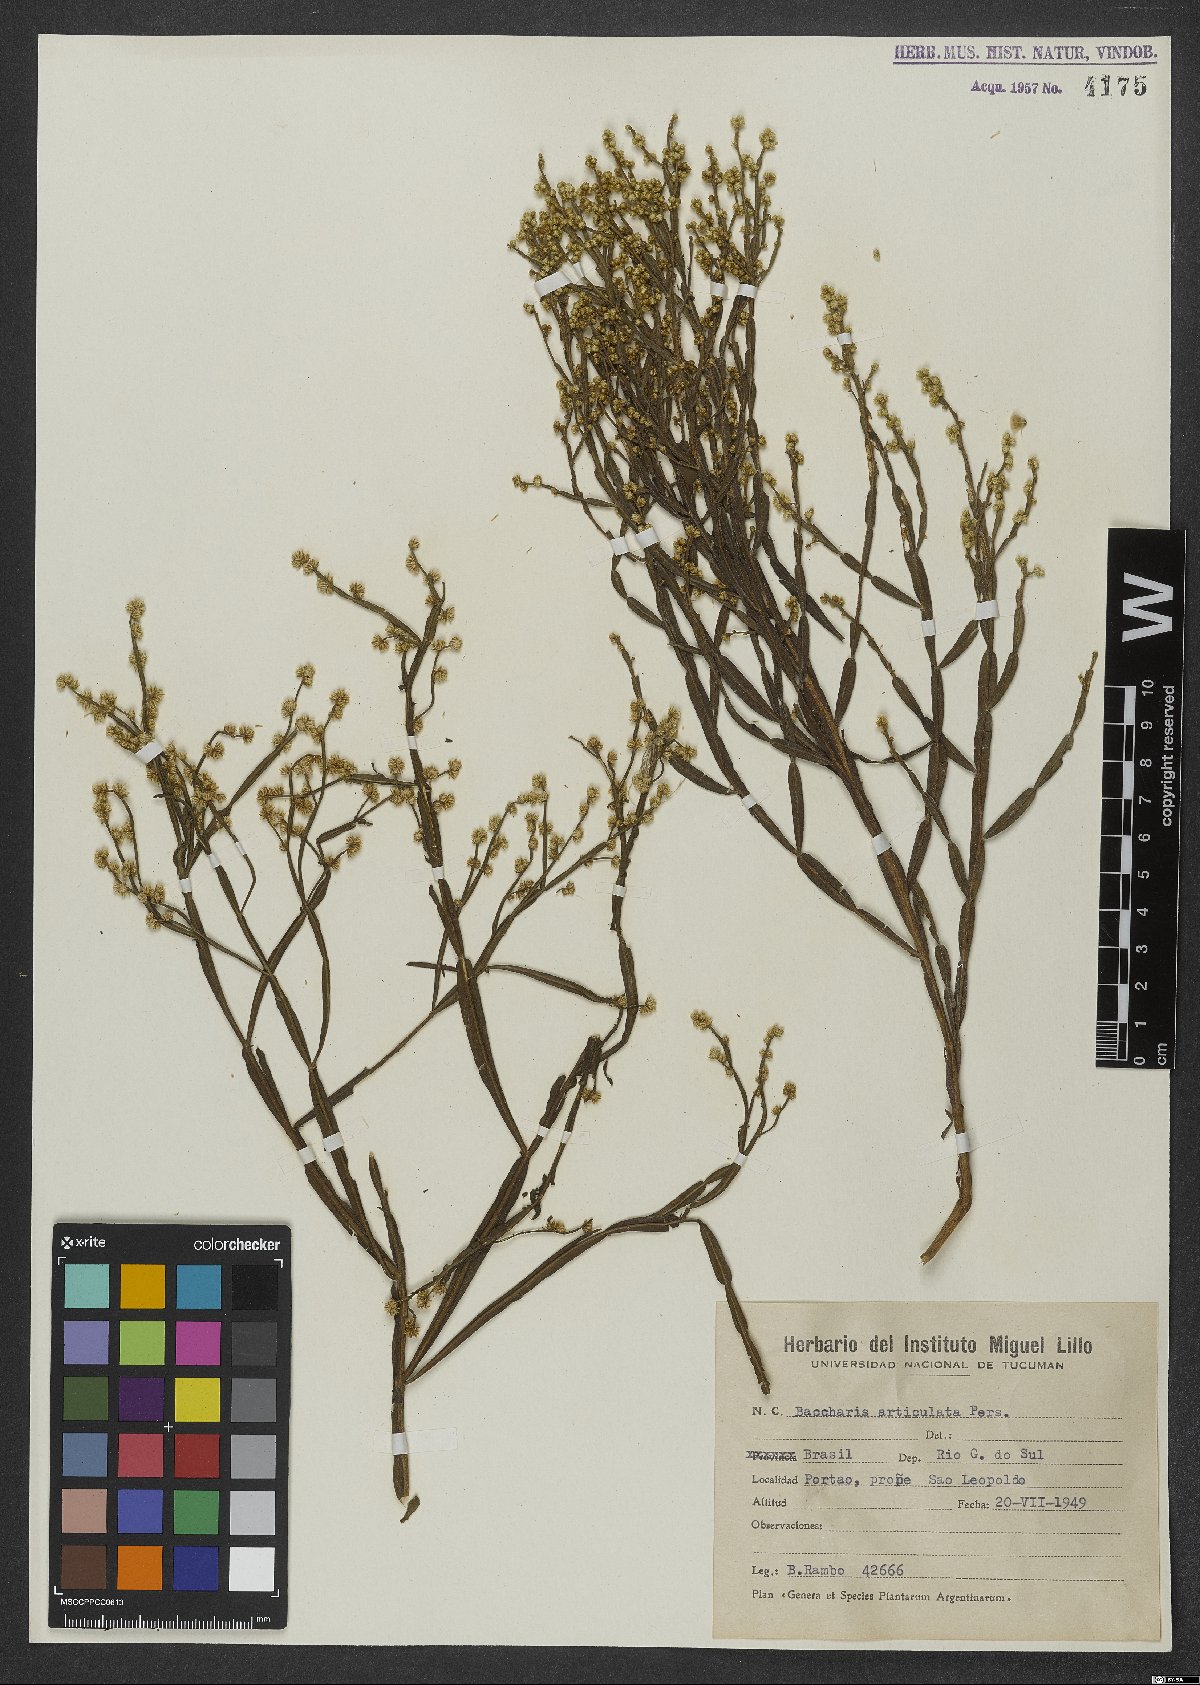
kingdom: Plantae
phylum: Tracheophyta
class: Magnoliopsida
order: Asterales
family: Asteraceae
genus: Baccharis
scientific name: Baccharis articulata
